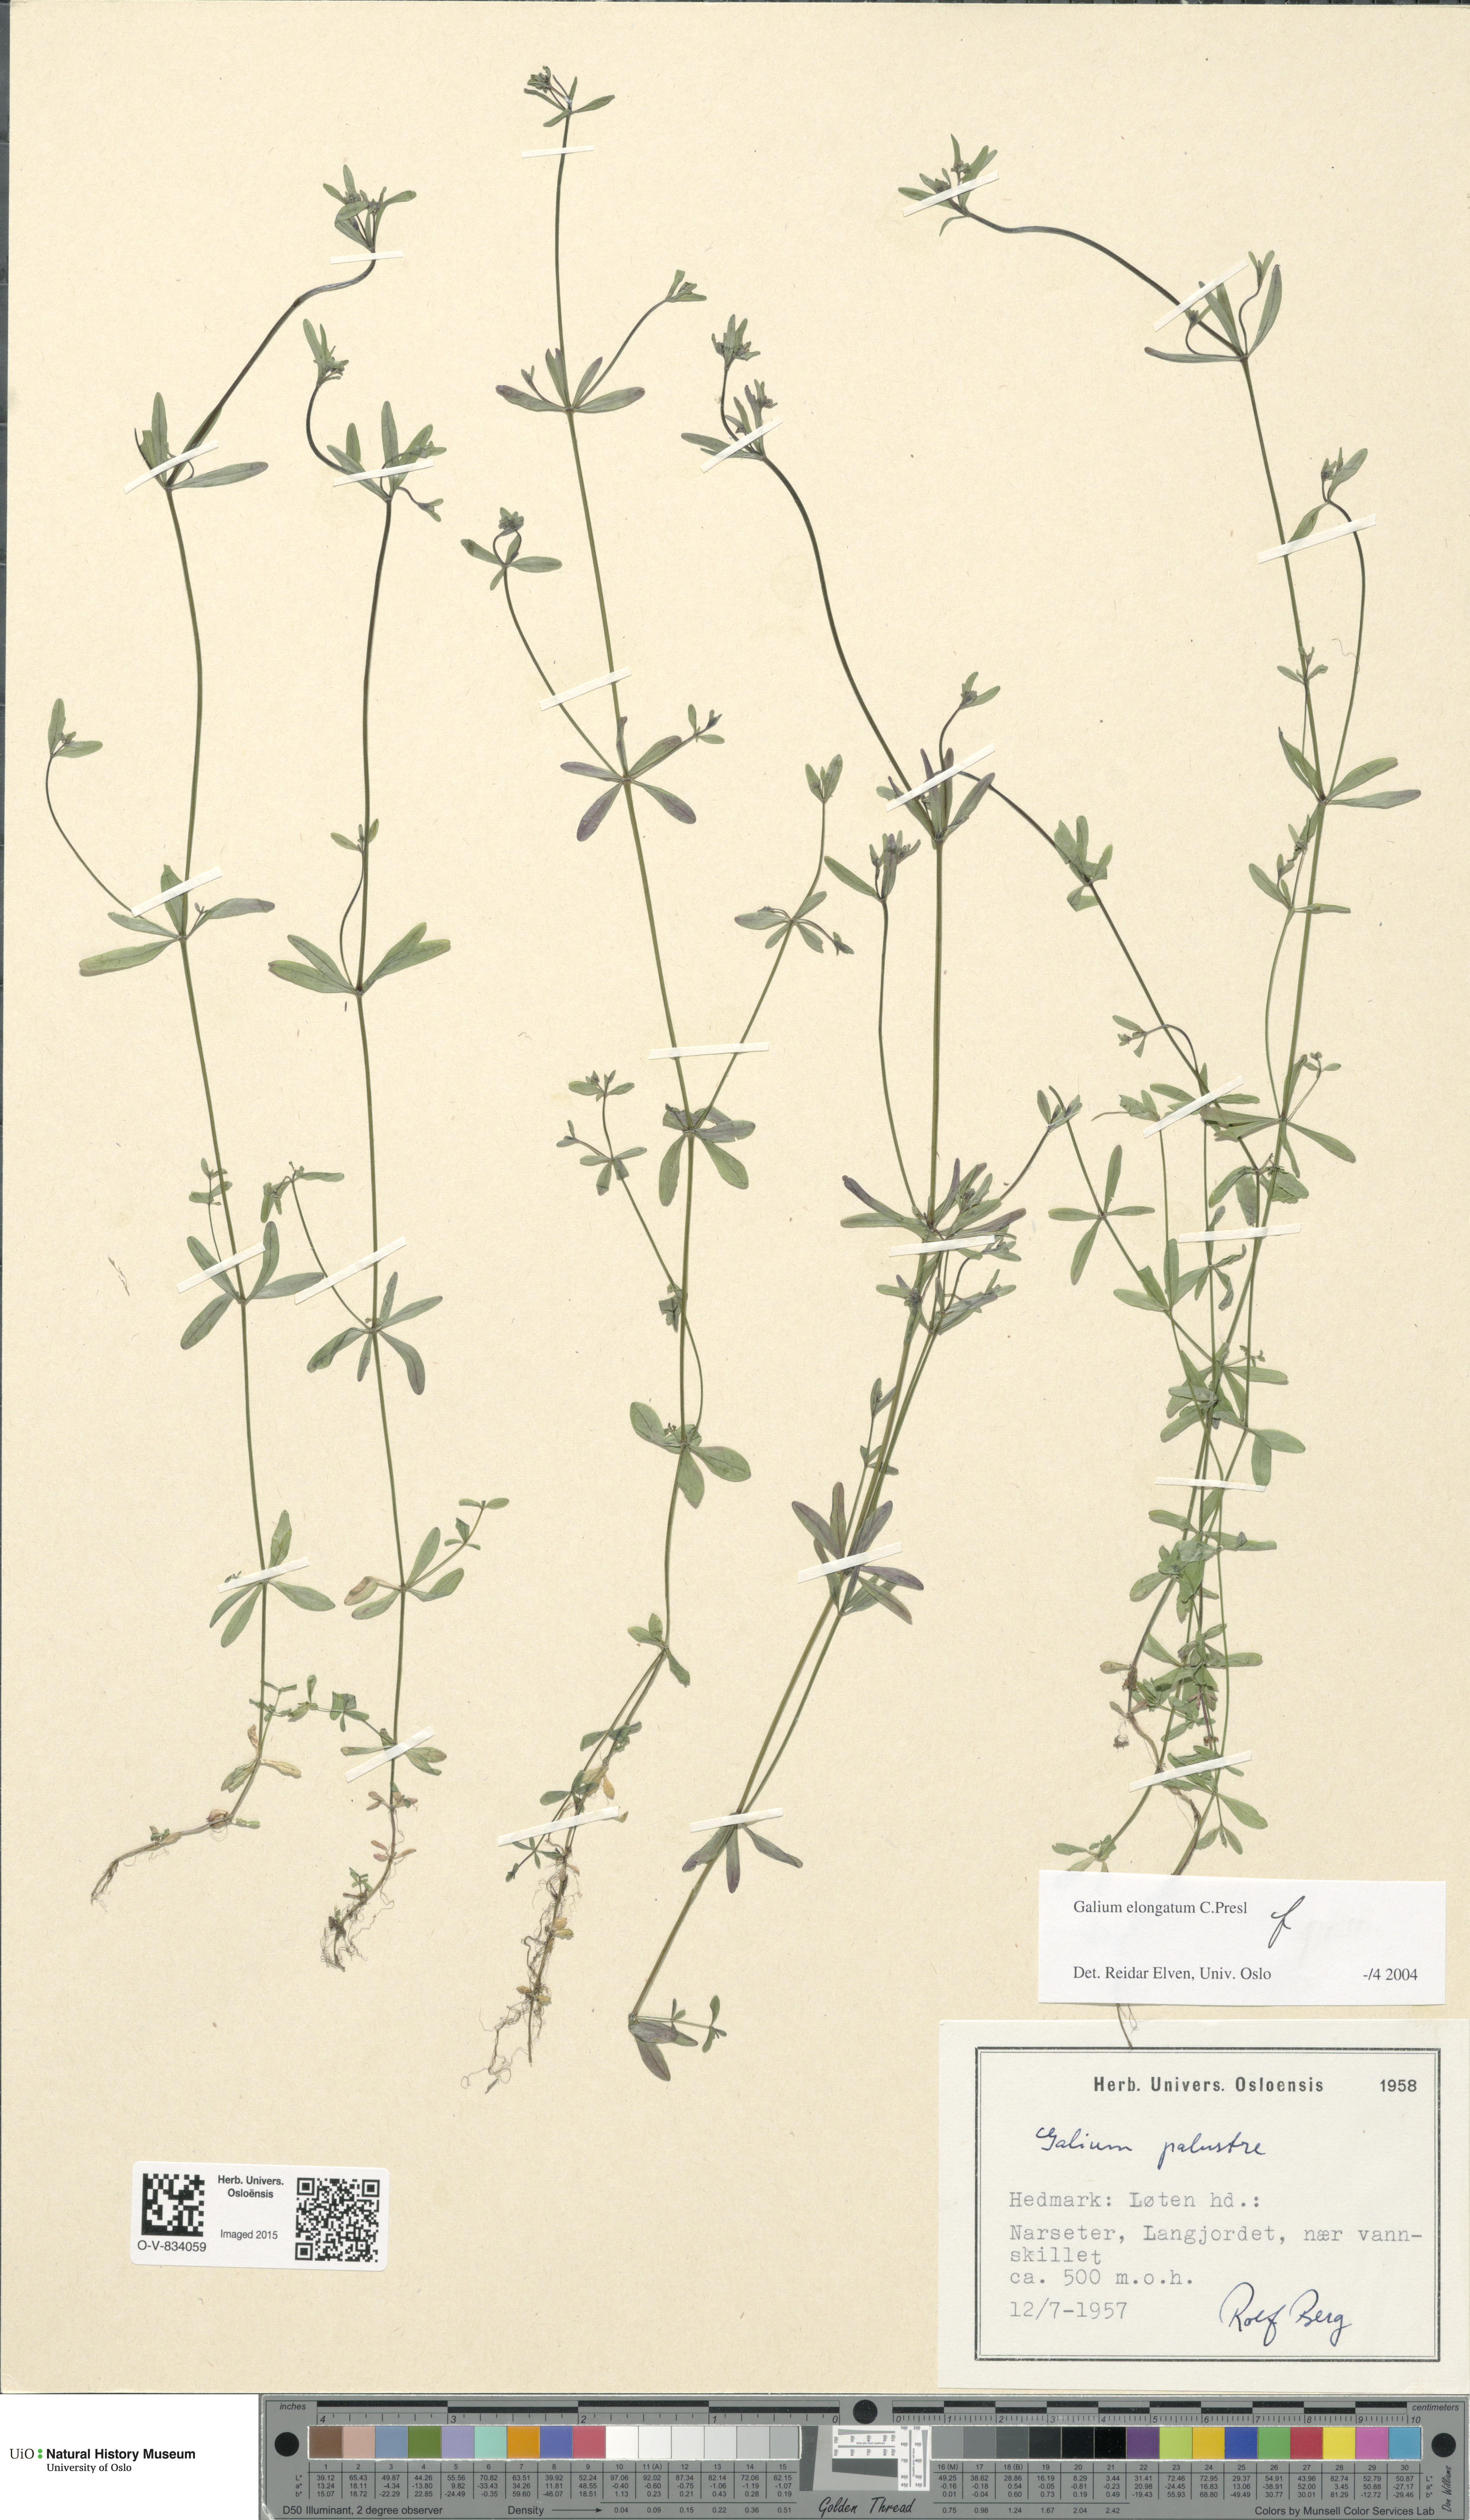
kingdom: Plantae
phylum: Tracheophyta
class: Magnoliopsida
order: Gentianales
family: Rubiaceae
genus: Galium
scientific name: Galium elongatum
